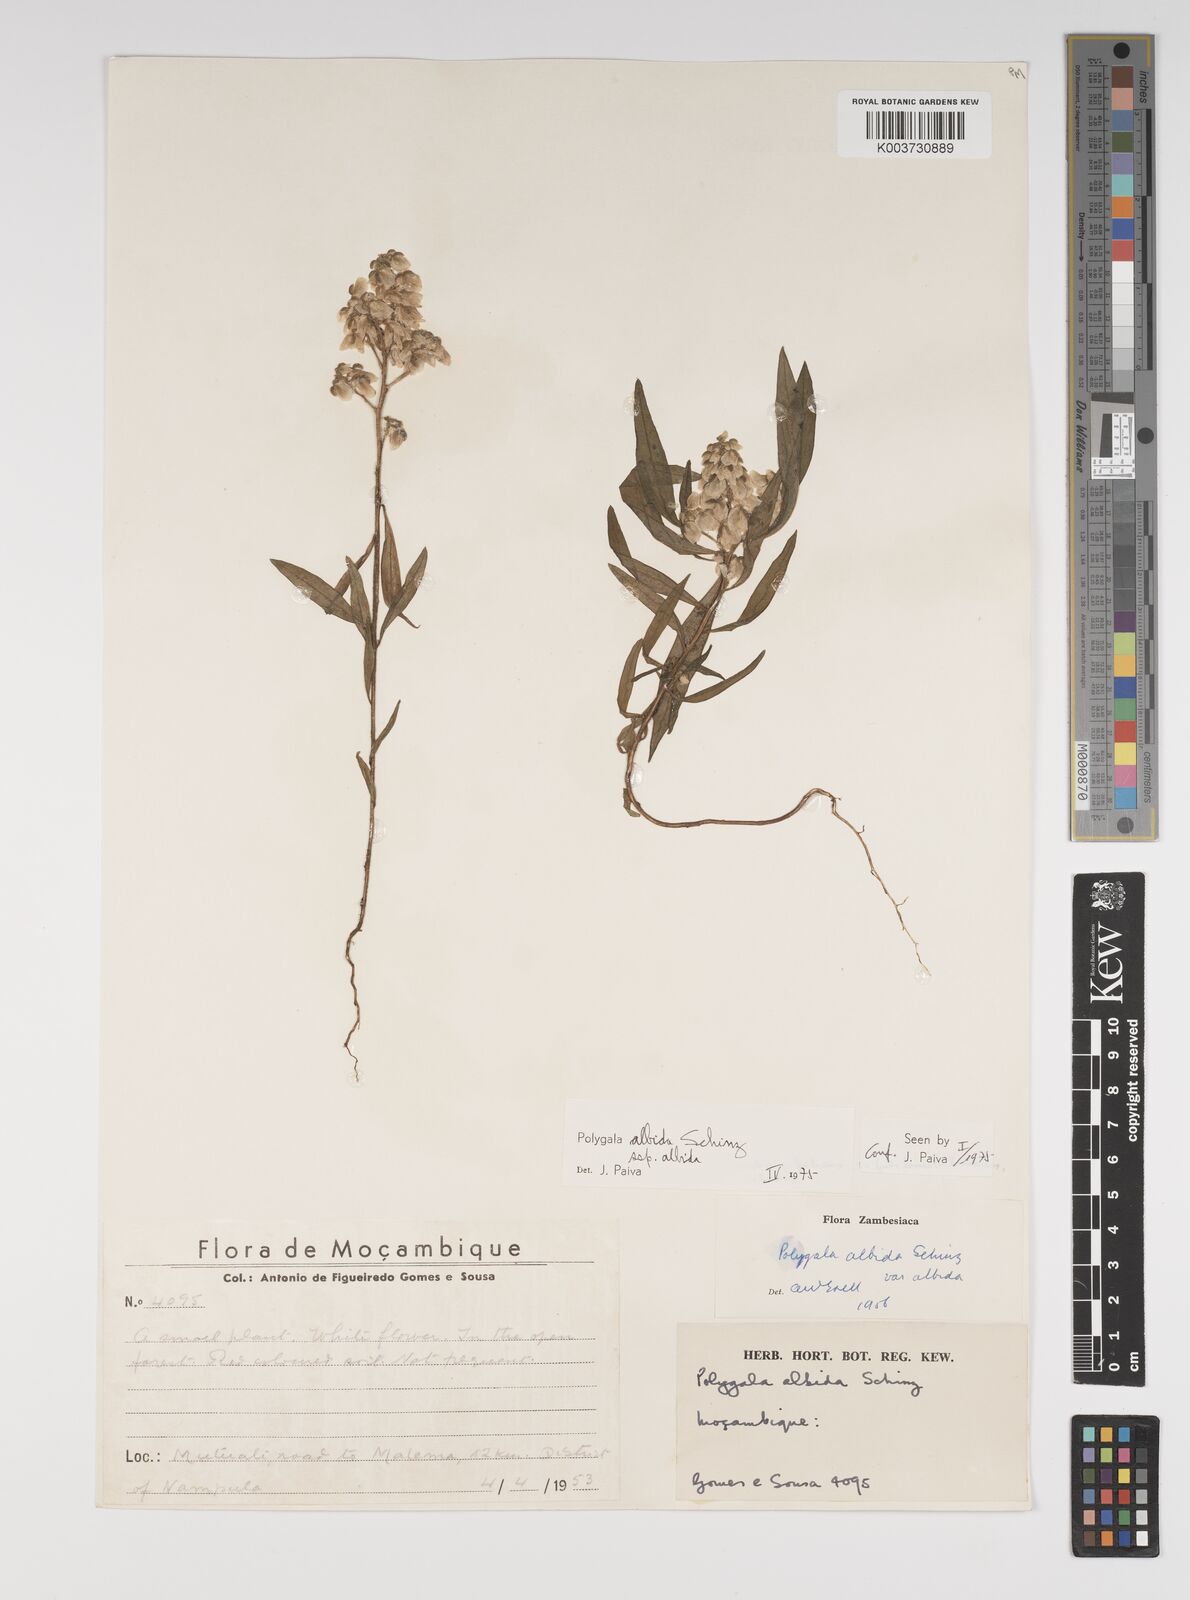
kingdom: Plantae
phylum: Tracheophyta
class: Magnoliopsida
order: Fabales
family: Polygalaceae
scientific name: Polygalaceae
